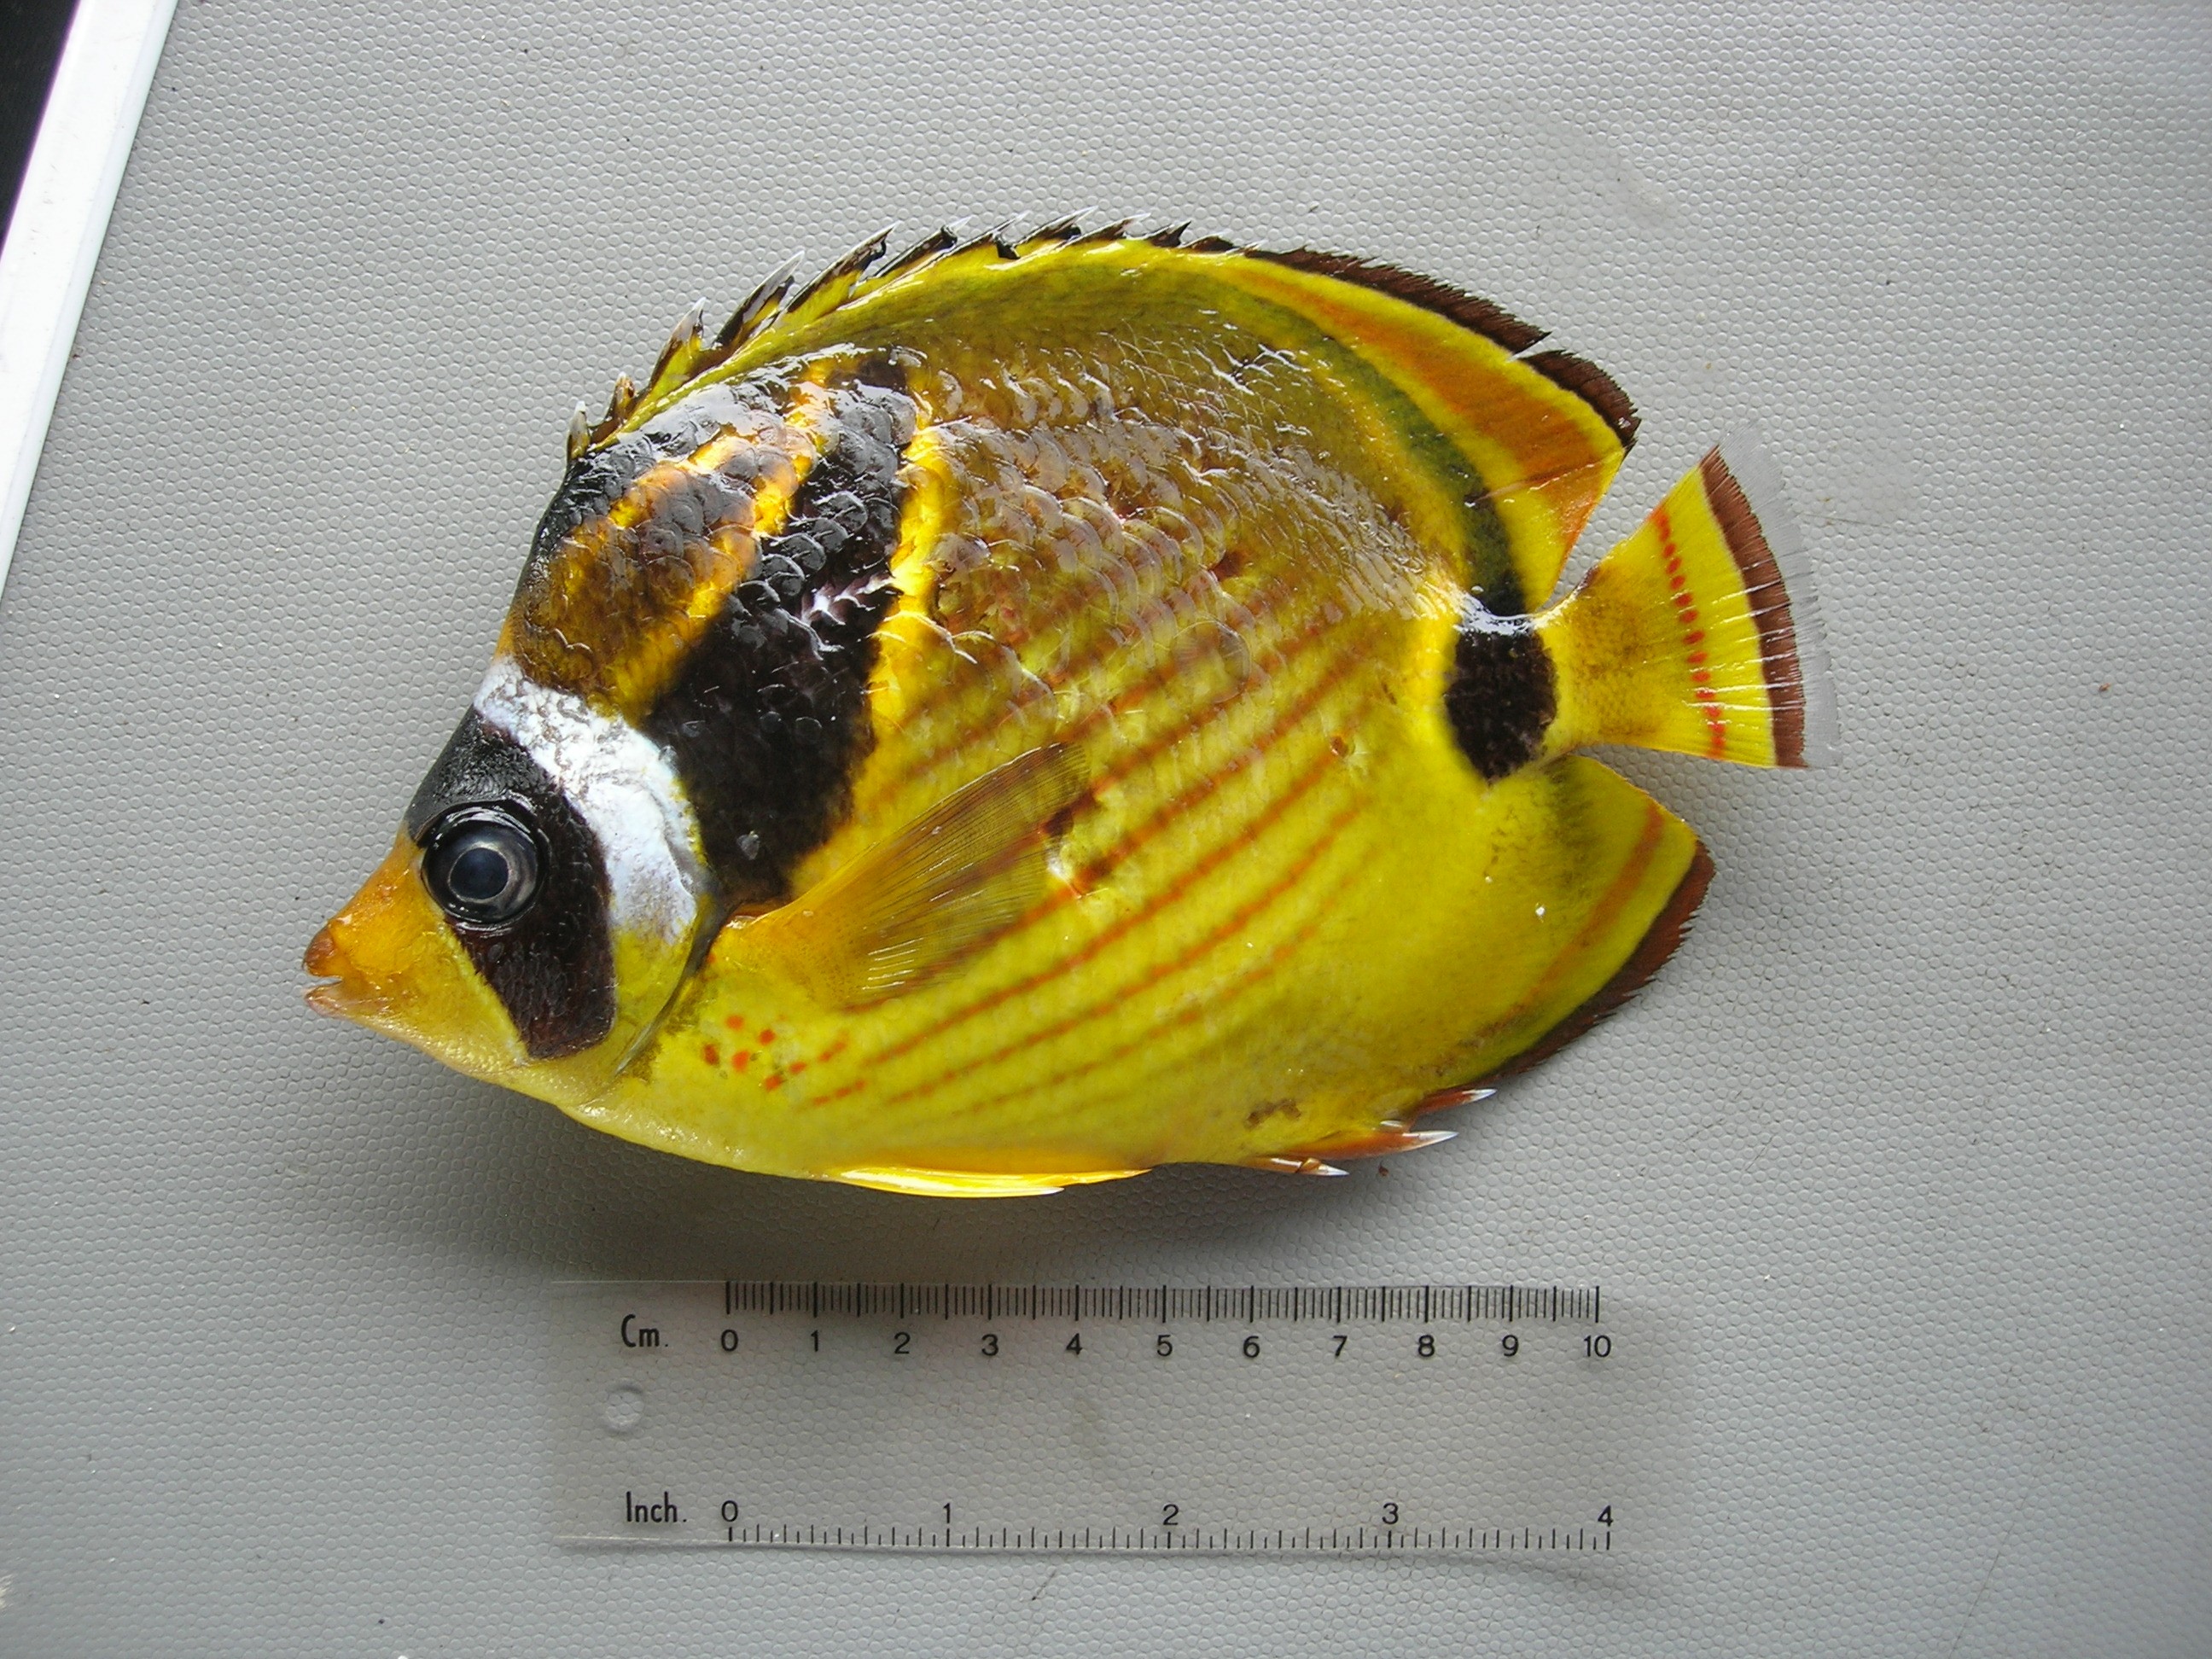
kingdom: Animalia
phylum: Chordata
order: Perciformes
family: Chaetodontidae
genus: Chaetodon
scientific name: Chaetodon lunula
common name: Raccoon butterflyfish
